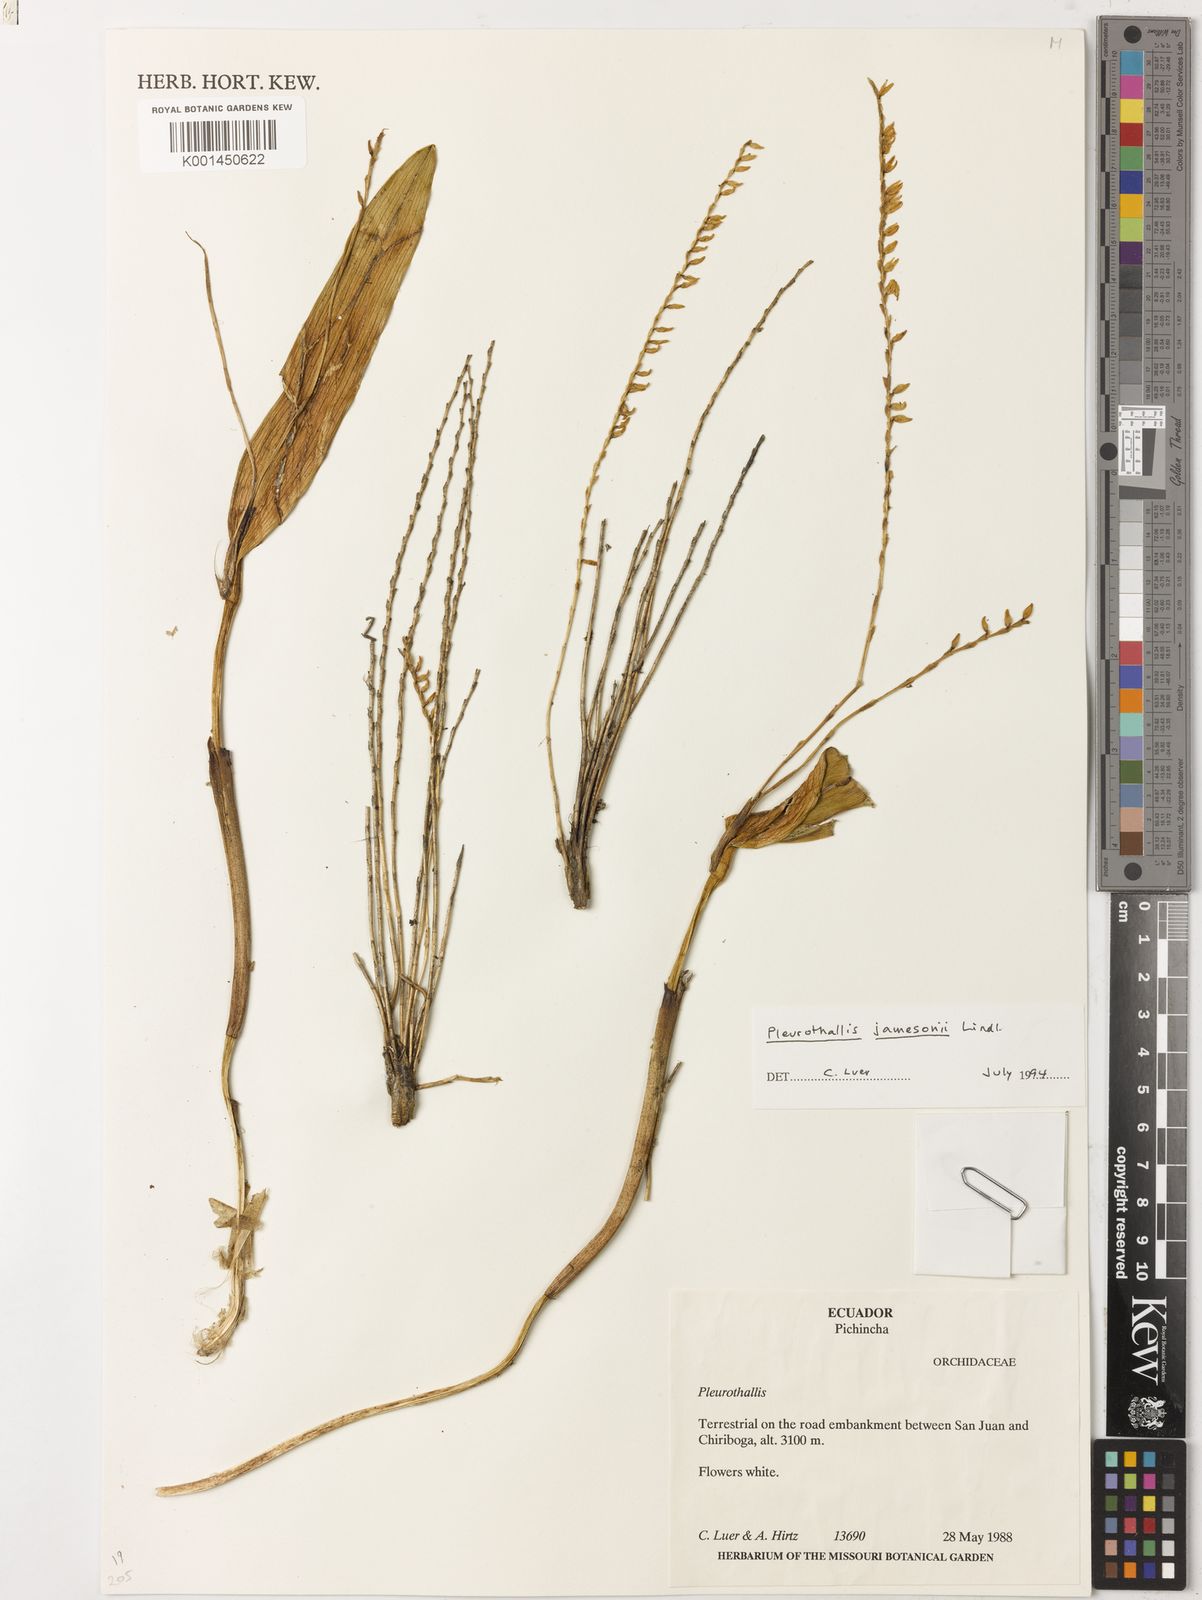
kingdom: Plantae
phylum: Tracheophyta
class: Liliopsida
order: Asparagales
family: Orchidaceae
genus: Stelis
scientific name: Stelis jamesonii
